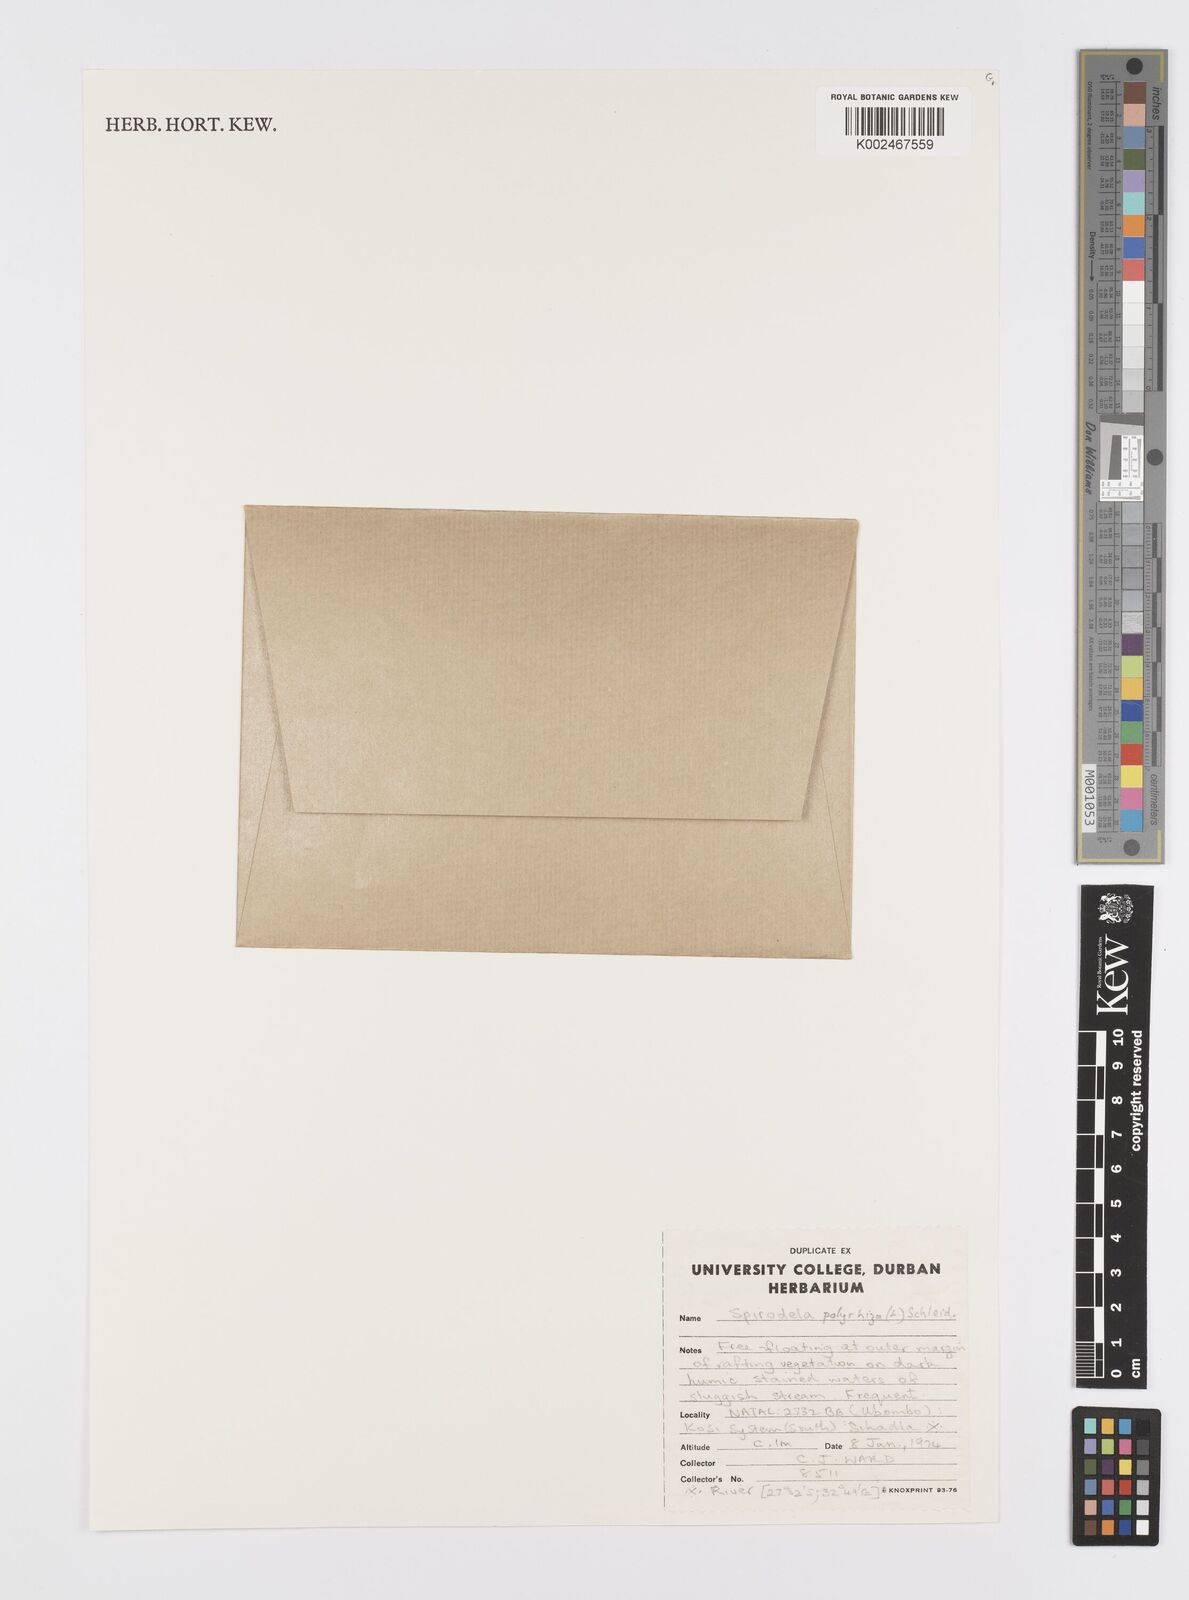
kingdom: Plantae
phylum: Tracheophyta
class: Liliopsida
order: Alismatales
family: Araceae
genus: Spirodela
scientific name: Spirodela polyrhiza
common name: Great duckweed
